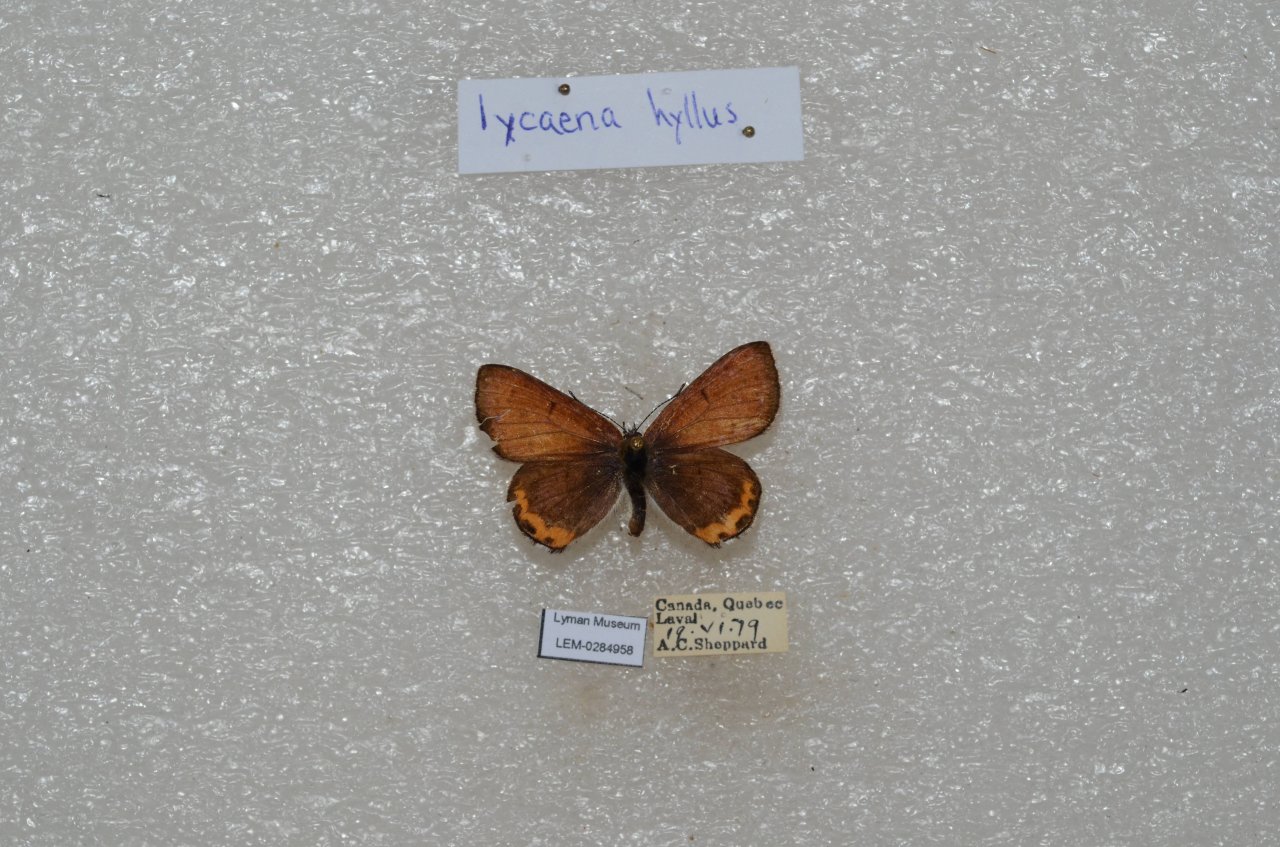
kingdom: Animalia
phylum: Arthropoda
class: Insecta
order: Lepidoptera
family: Sesiidae
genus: Sesia
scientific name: Sesia Lycaena hyllus
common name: Bronze Copper
